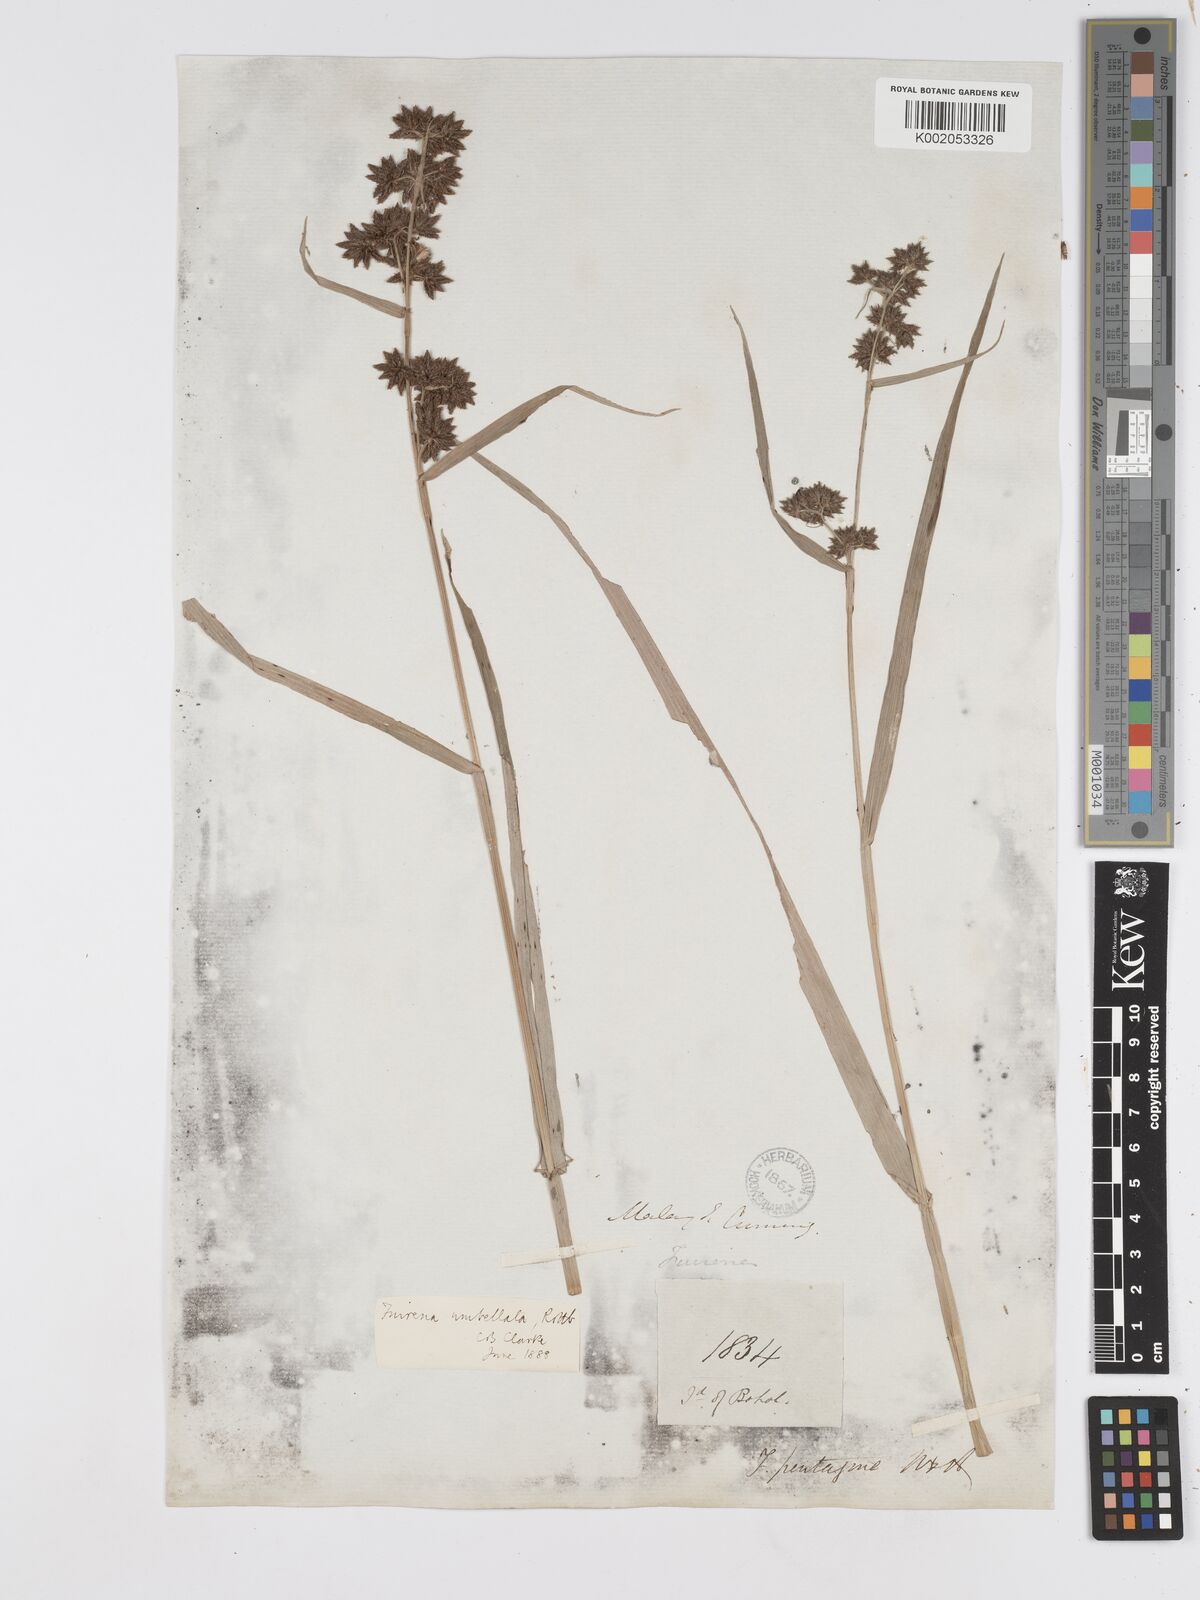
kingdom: Plantae
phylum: Tracheophyta
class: Liliopsida
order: Poales
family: Cyperaceae
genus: Fuirena
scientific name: Fuirena umbellata
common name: Yefen
